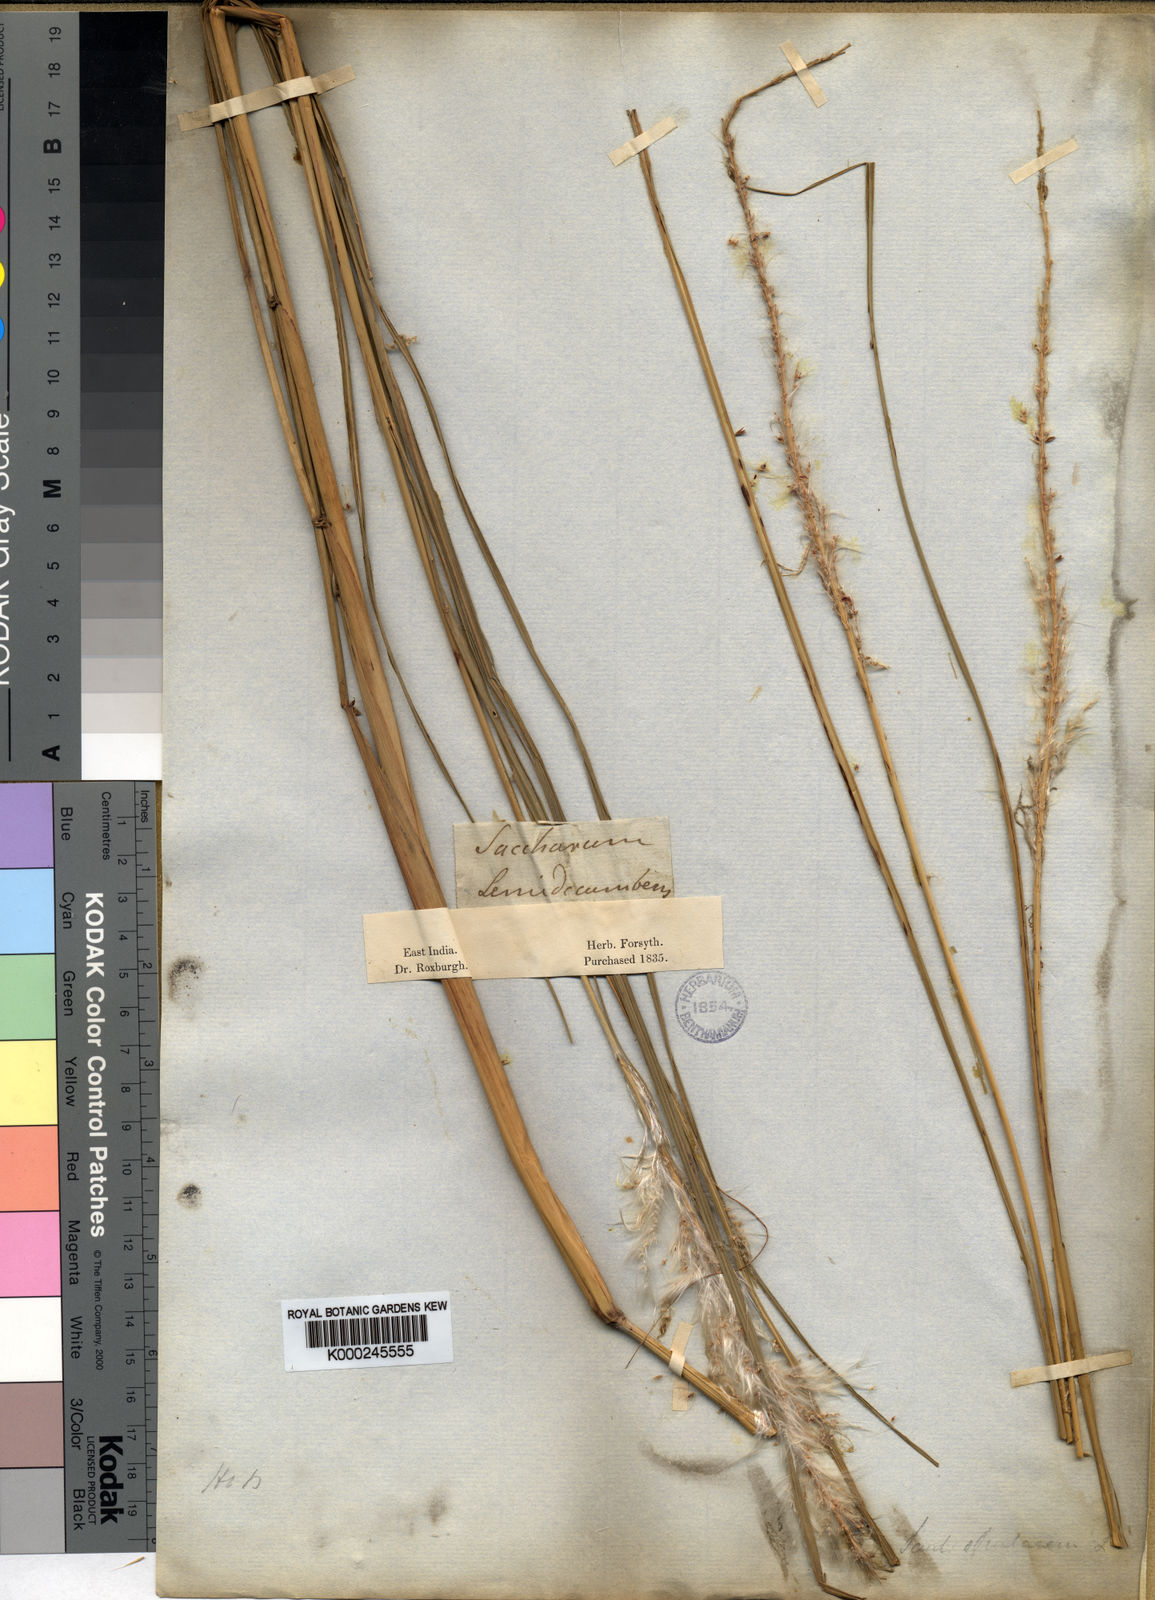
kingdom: Plantae
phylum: Tracheophyta
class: Liliopsida
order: Poales
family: Poaceae
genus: Saccharum
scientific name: Saccharum spontaneum
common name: Wild sugarcane
